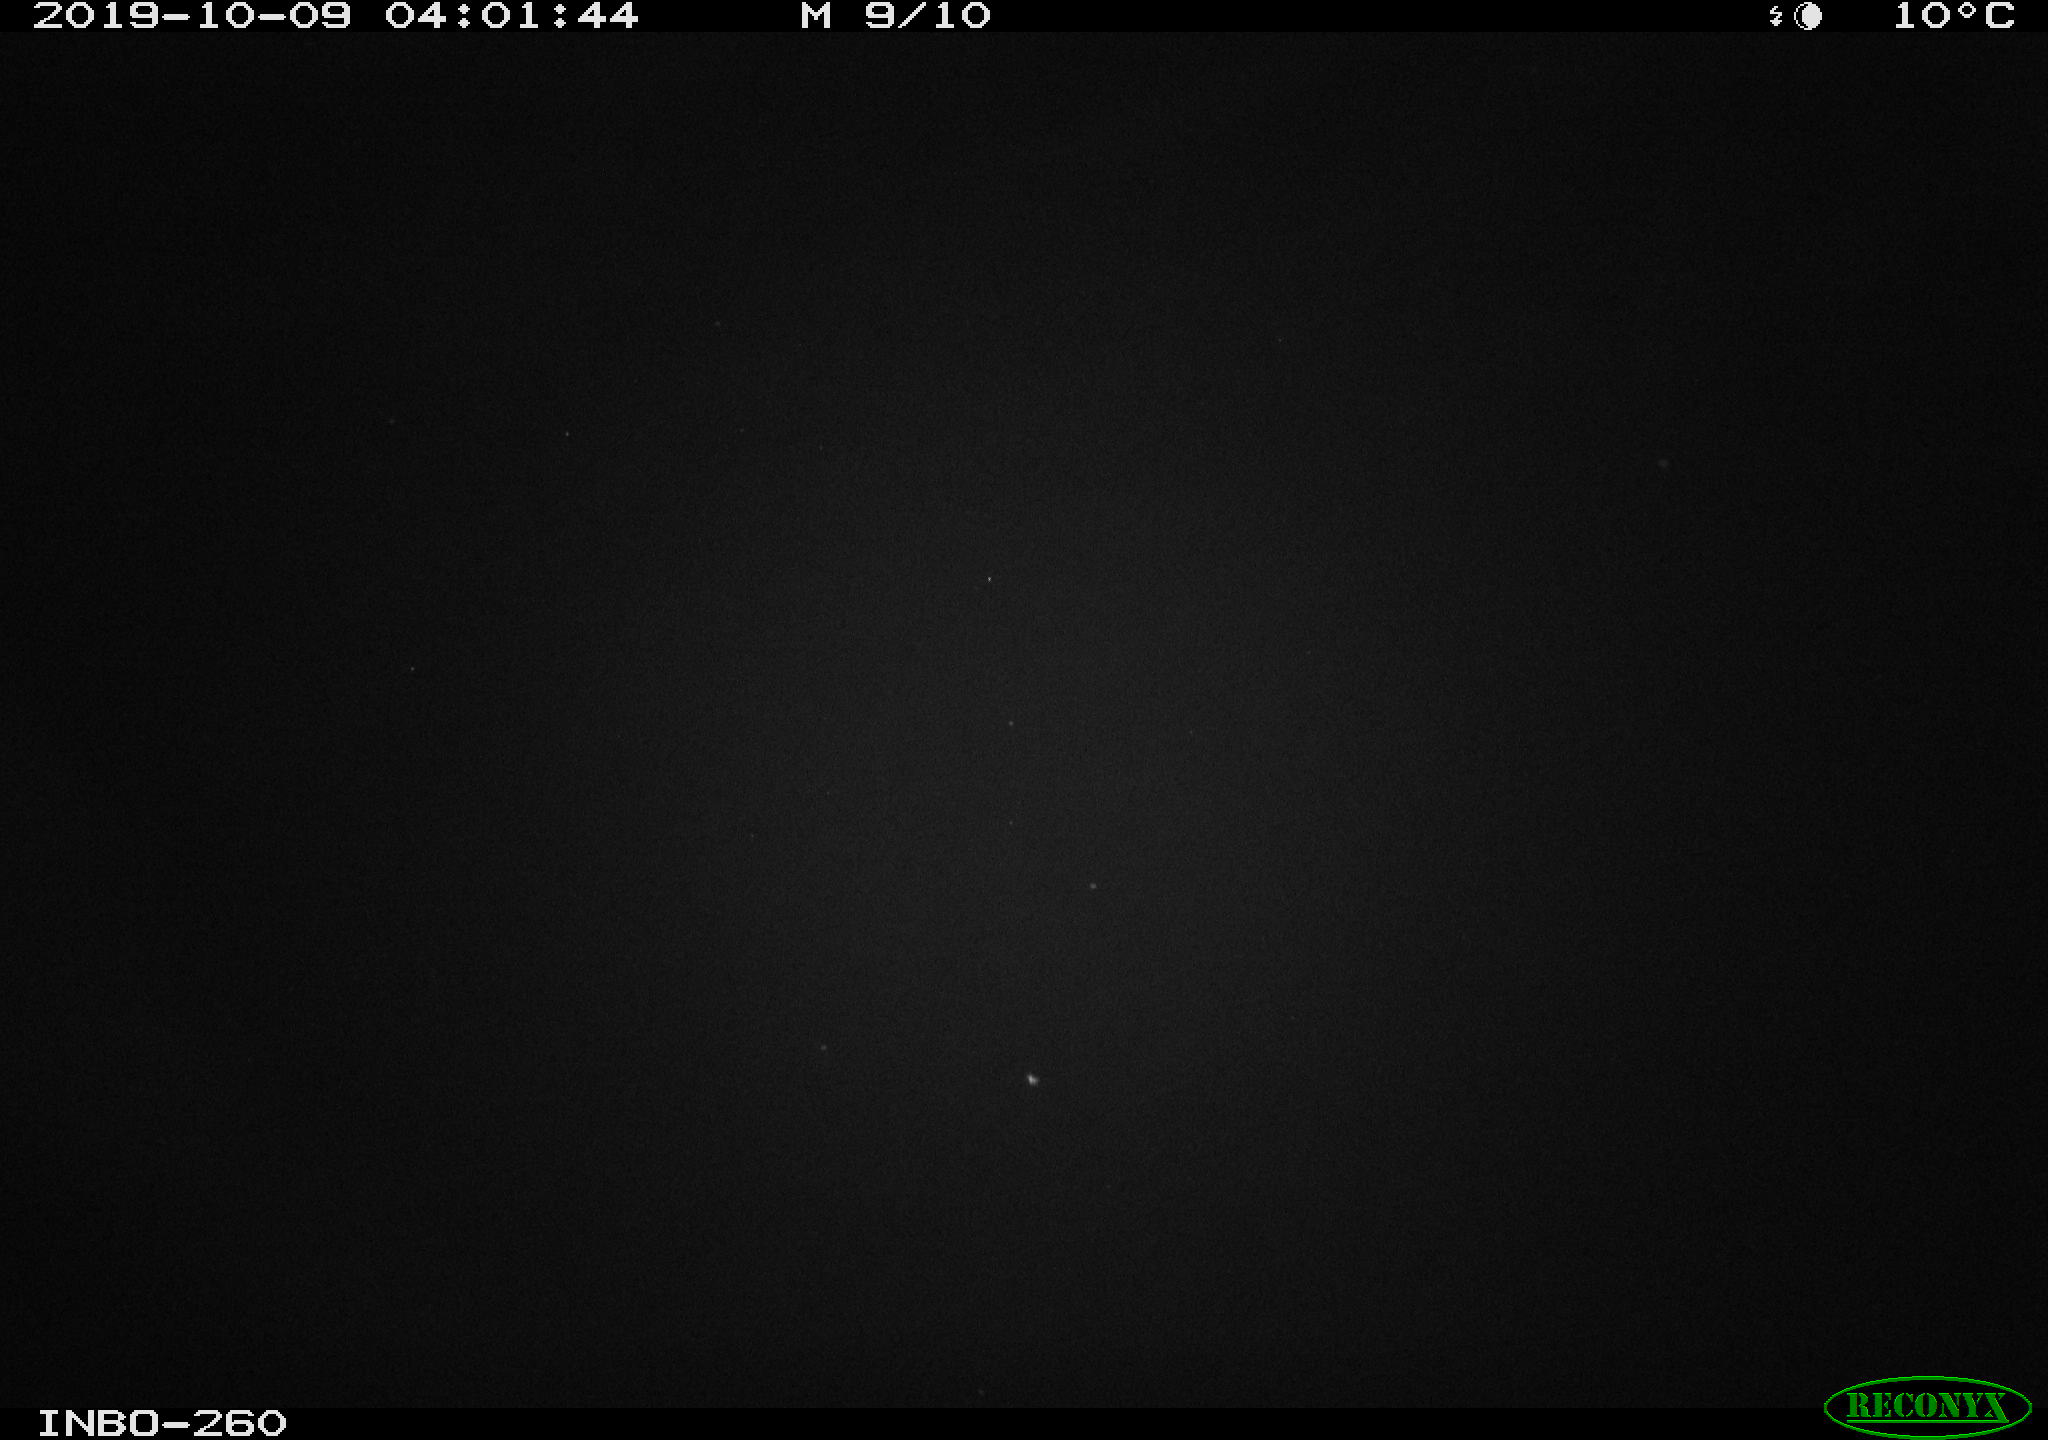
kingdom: Animalia
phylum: Chordata
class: Aves
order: Anseriformes
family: Anatidae
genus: Anas
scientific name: Anas platyrhynchos
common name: Mallard
